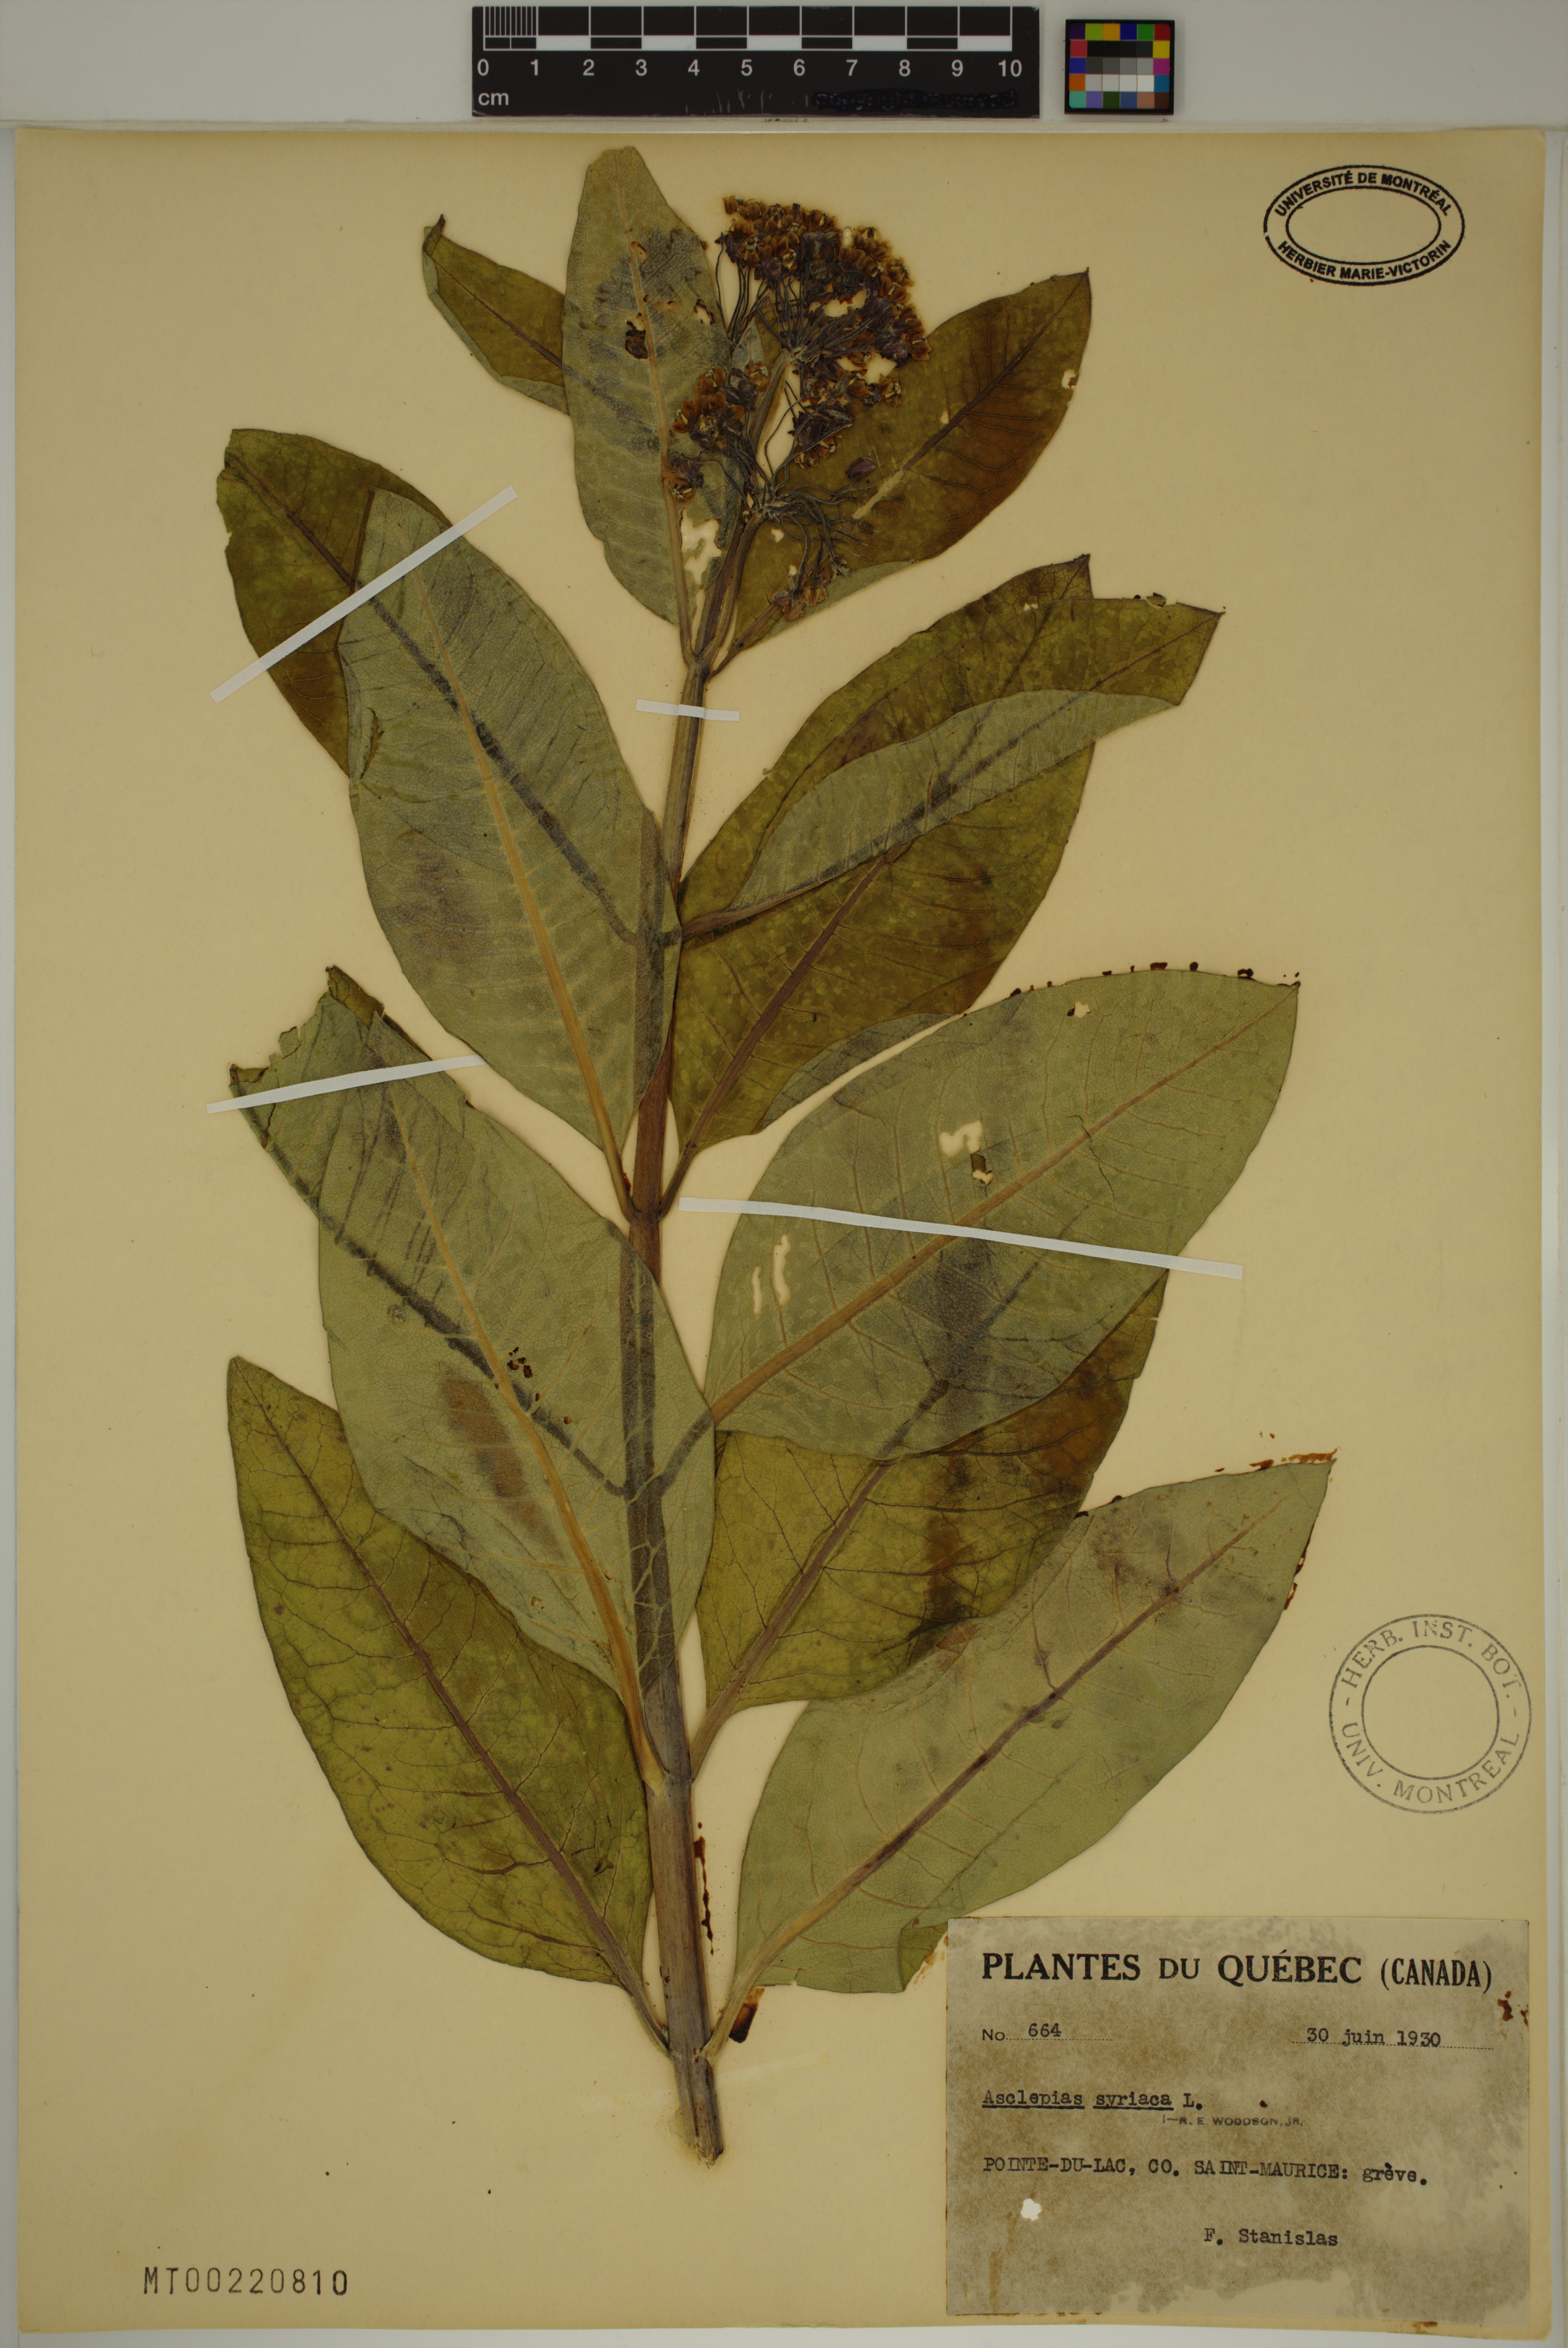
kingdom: Plantae
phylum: Tracheophyta
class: Magnoliopsida
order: Gentianales
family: Apocynaceae
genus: Asclepias
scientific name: Asclepias syriaca
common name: Common milkweed
